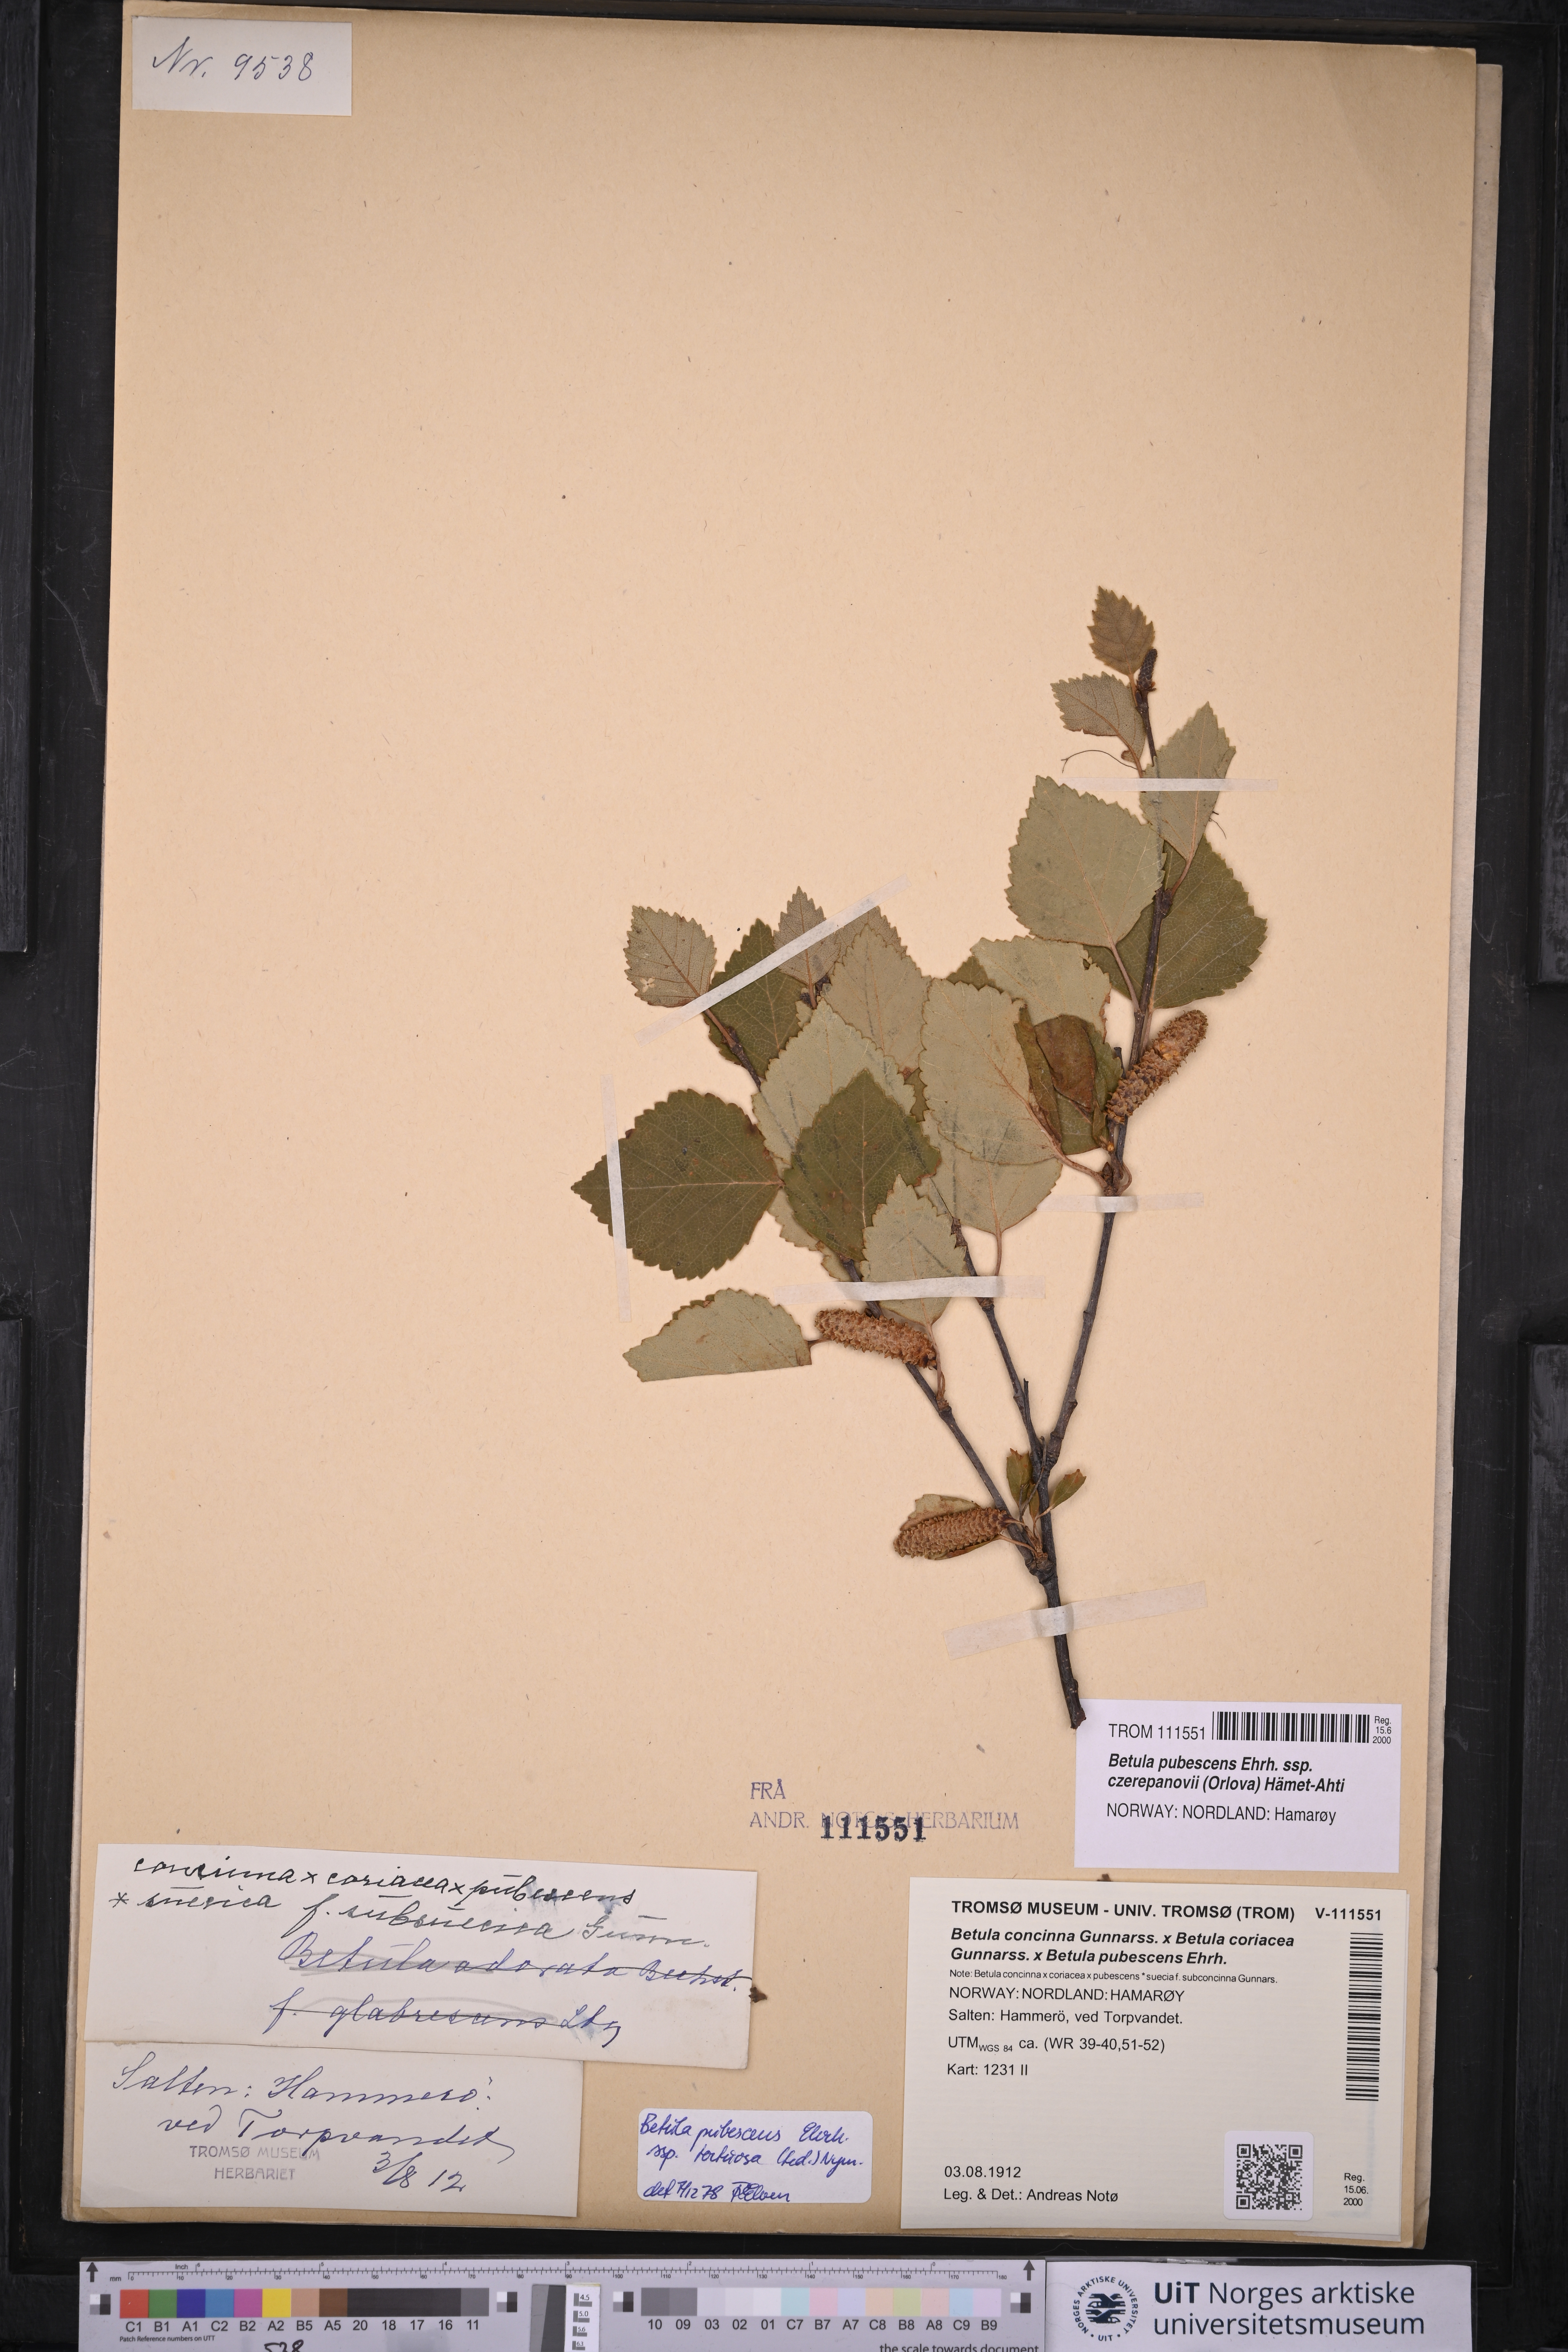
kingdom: Plantae
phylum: Tracheophyta
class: Magnoliopsida
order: Fagales
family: Betulaceae
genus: Betula
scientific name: Betula pubescens
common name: Downy birch
